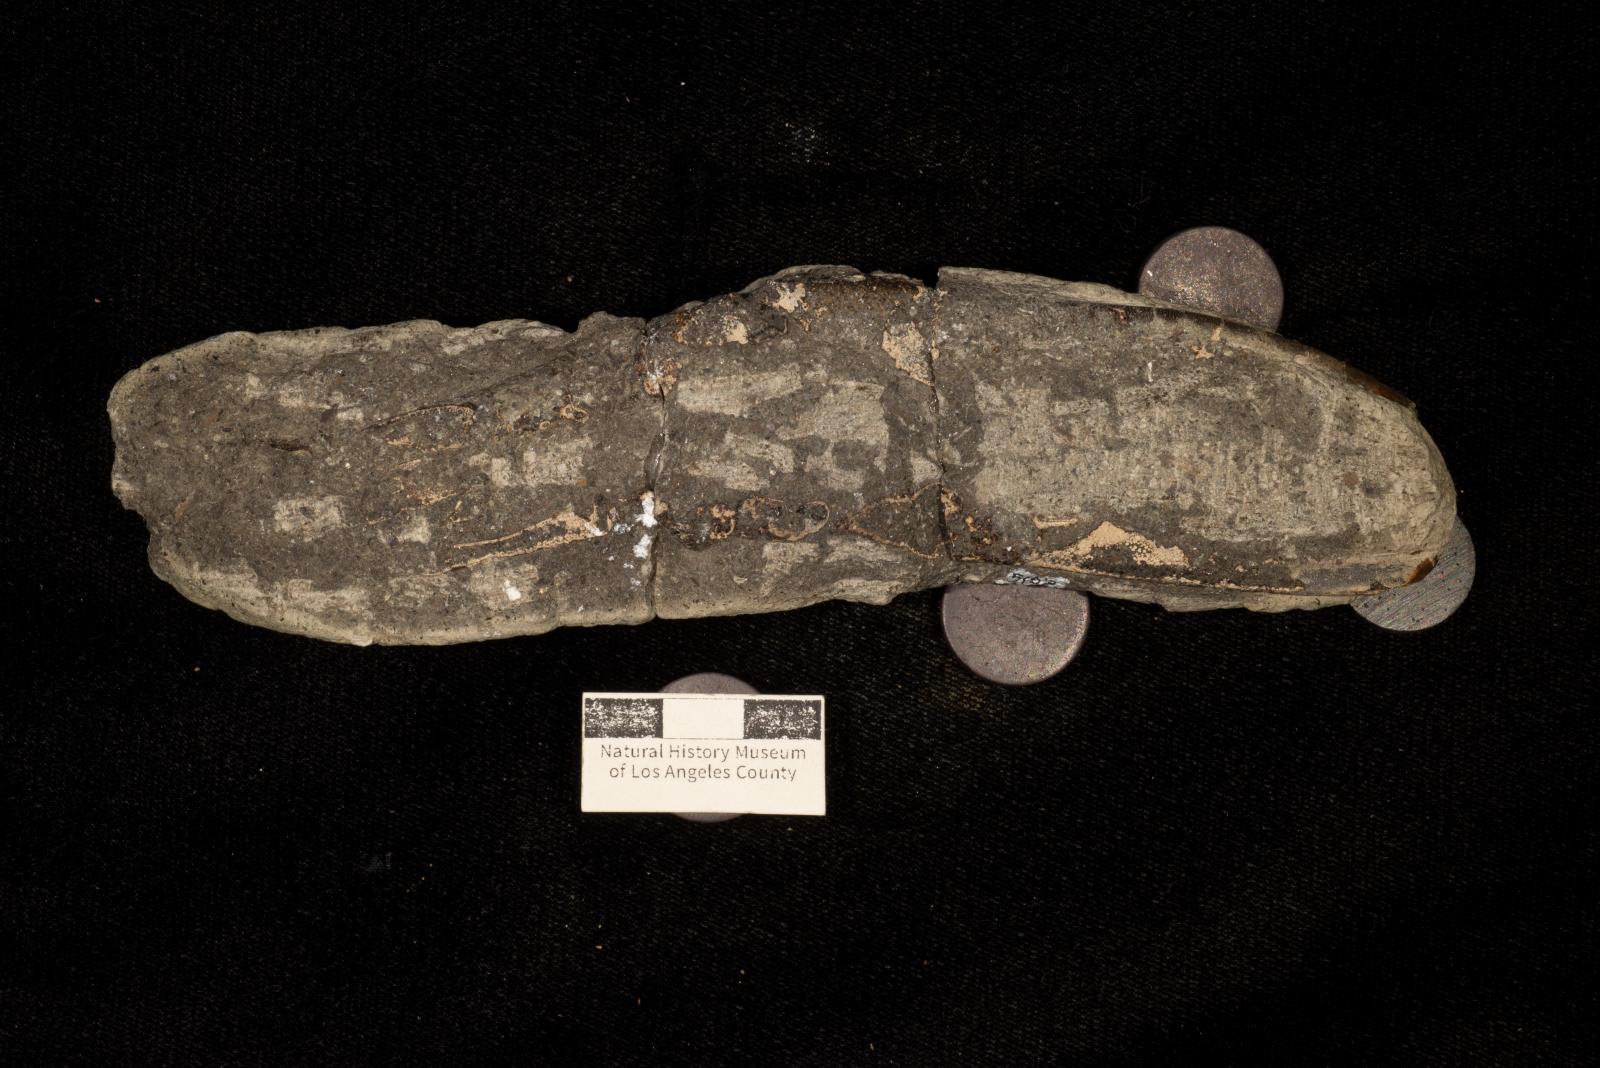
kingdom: Animalia
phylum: Arthropoda
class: Malacostraca
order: Decapoda
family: Erymidae
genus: Enoploclytia
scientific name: Enoploclytia
